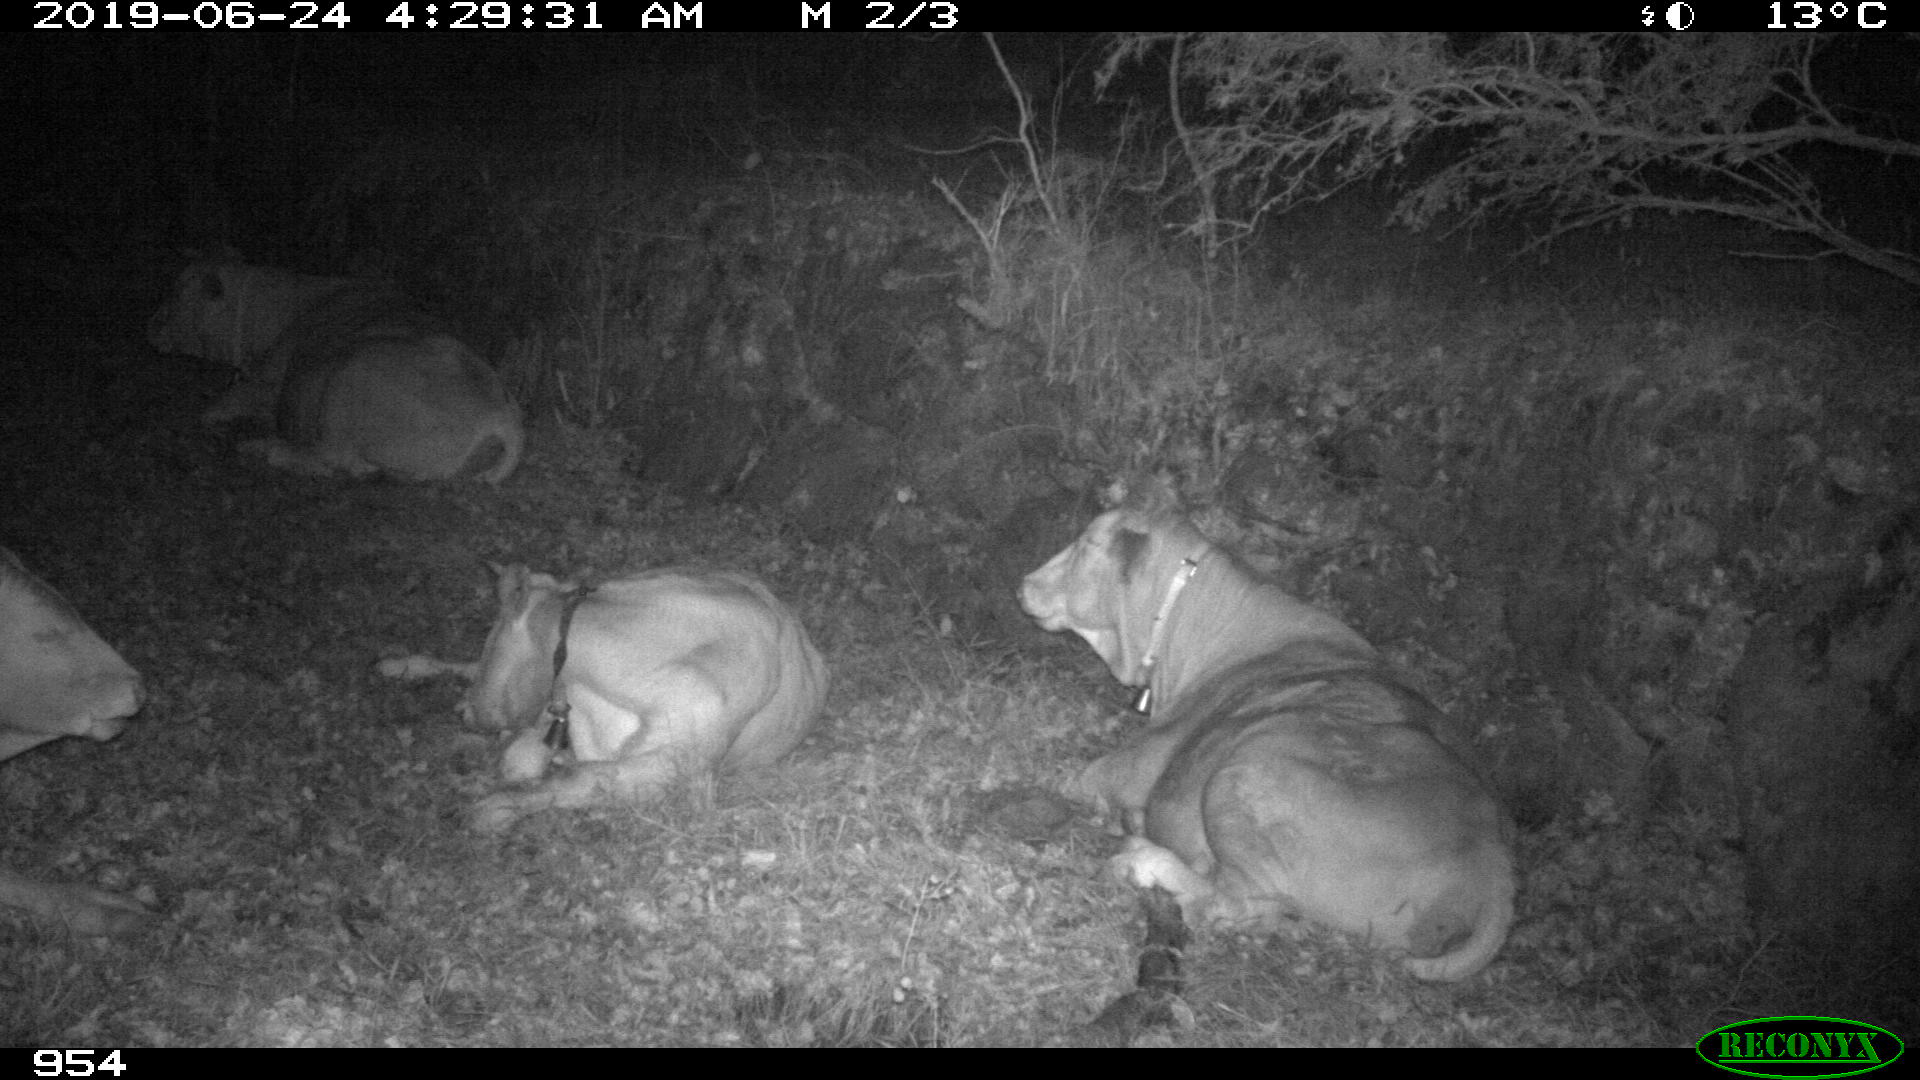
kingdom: Animalia
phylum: Chordata
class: Mammalia
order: Artiodactyla
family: Bovidae
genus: Bos
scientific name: Bos taurus
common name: Domesticated cattle
